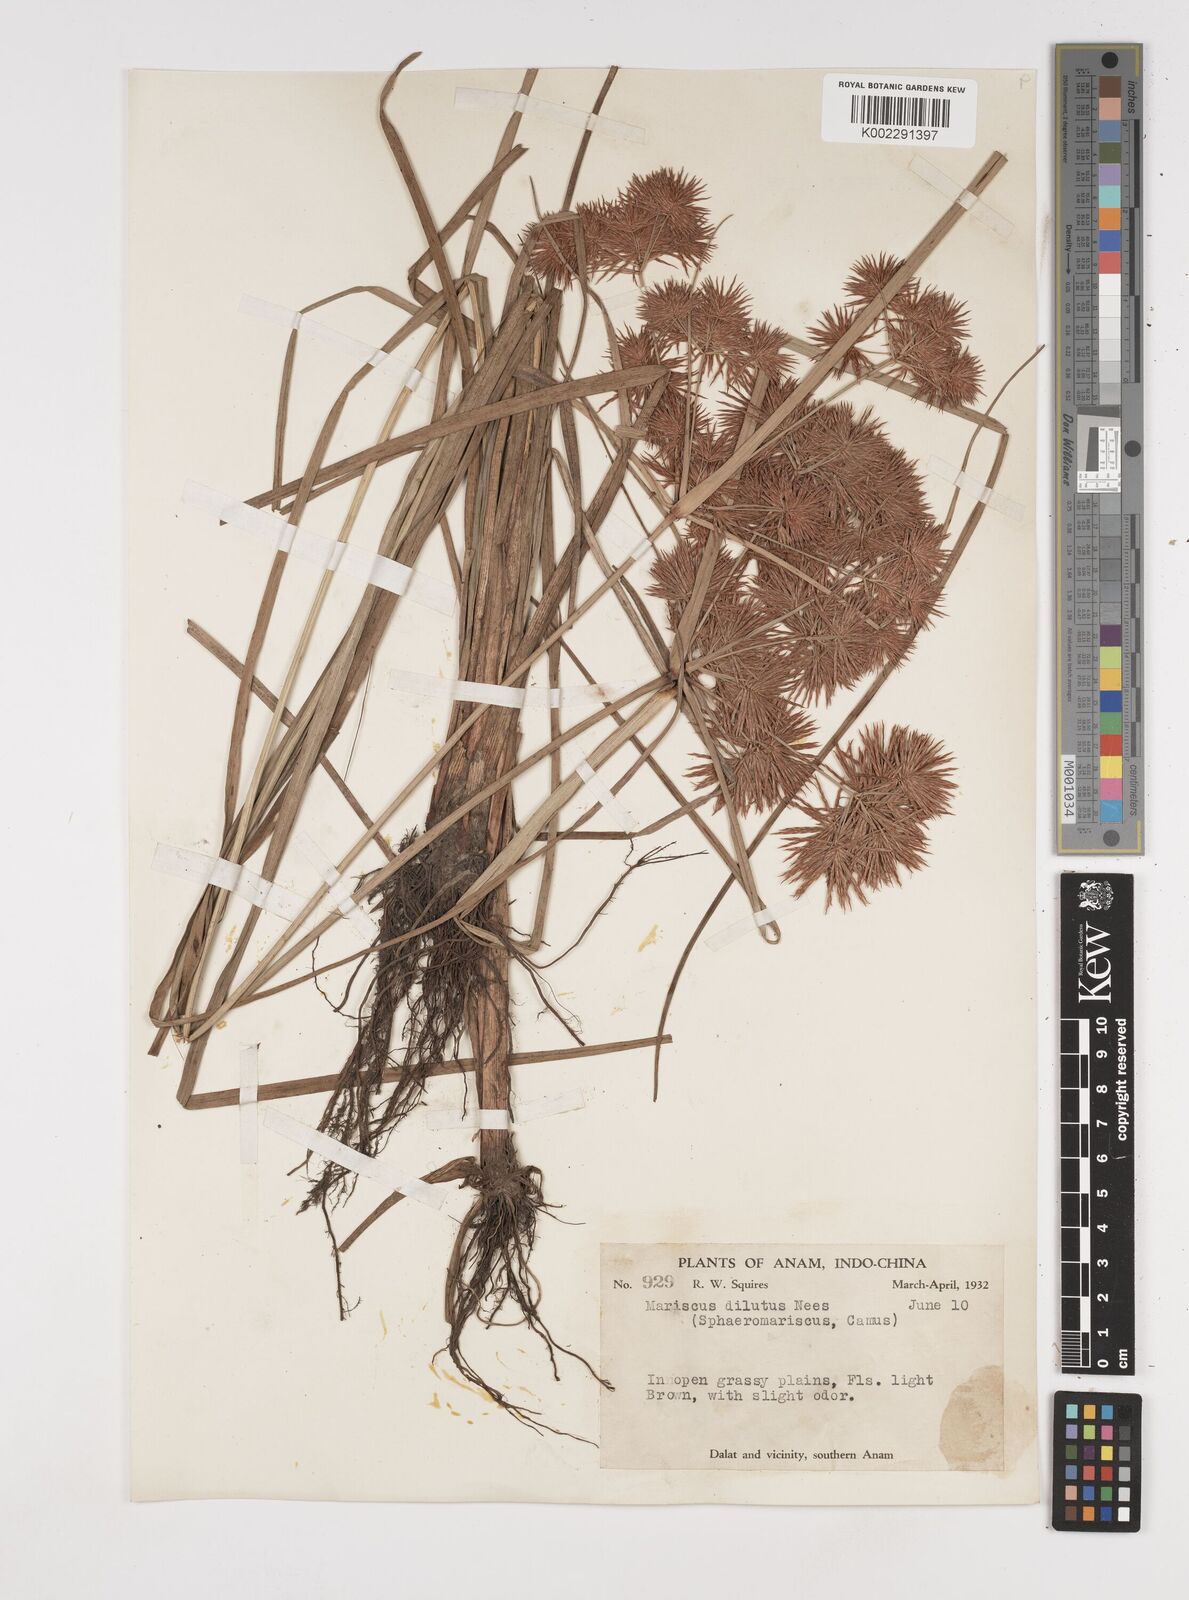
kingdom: Plantae
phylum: Tracheophyta
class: Liliopsida
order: Poales
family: Cyperaceae
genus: Cyperus
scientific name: Cyperus compactus
